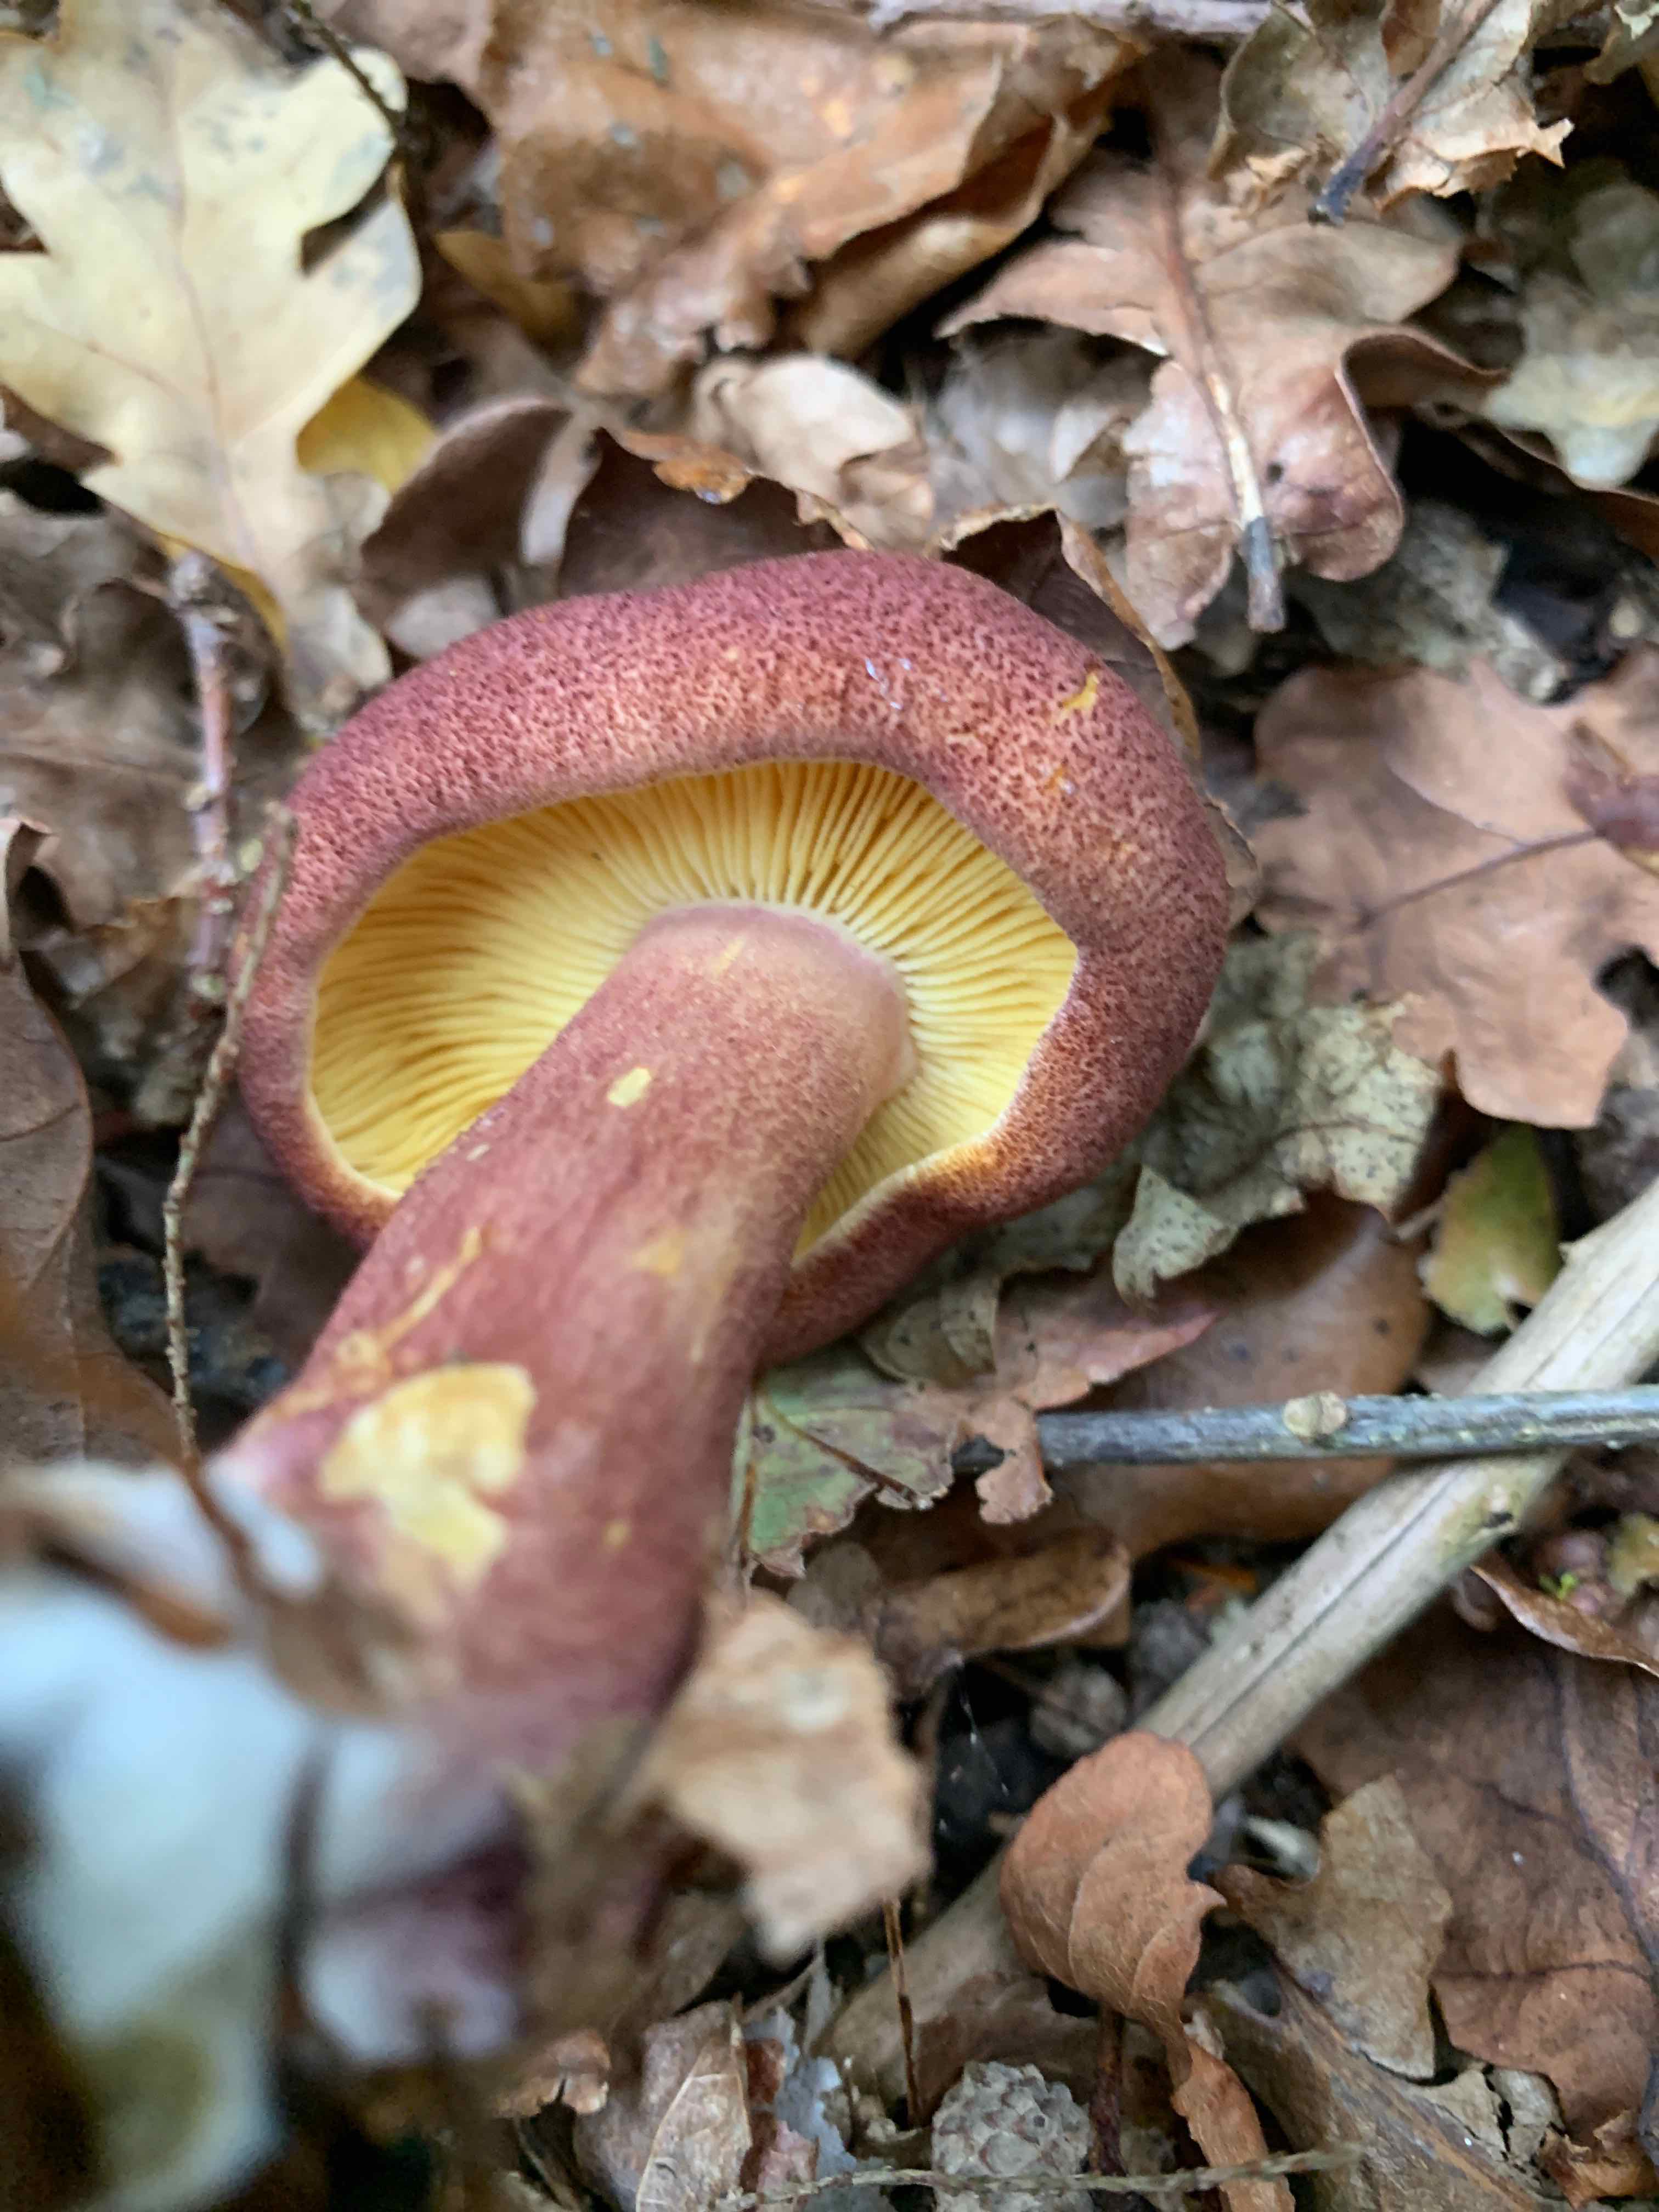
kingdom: Fungi
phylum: Basidiomycota
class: Agaricomycetes
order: Agaricales
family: Tricholomataceae
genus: Tricholomopsis
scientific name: Tricholomopsis rutilans
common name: purpur-væbnerhat
